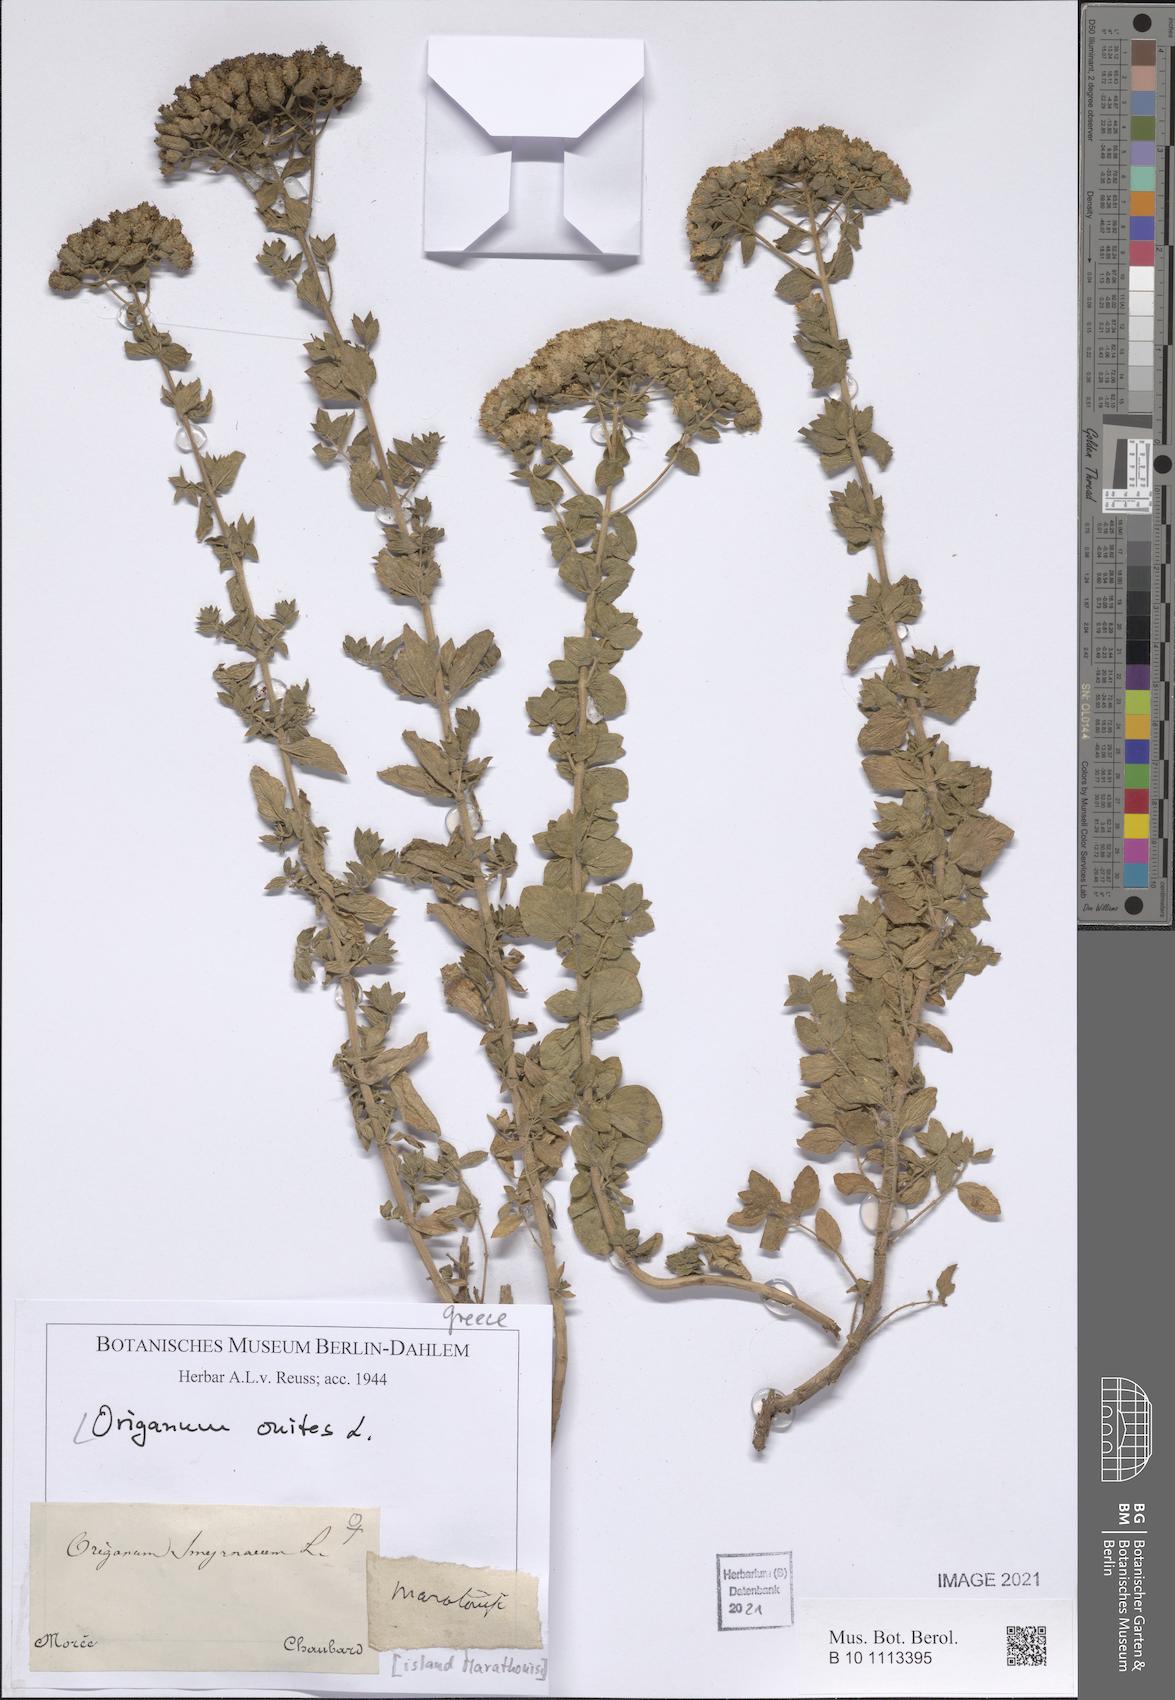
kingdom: Plantae
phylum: Tracheophyta
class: Magnoliopsida
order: Lamiales
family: Lamiaceae
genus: Origanum
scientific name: Origanum onites
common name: Turkish oregano
